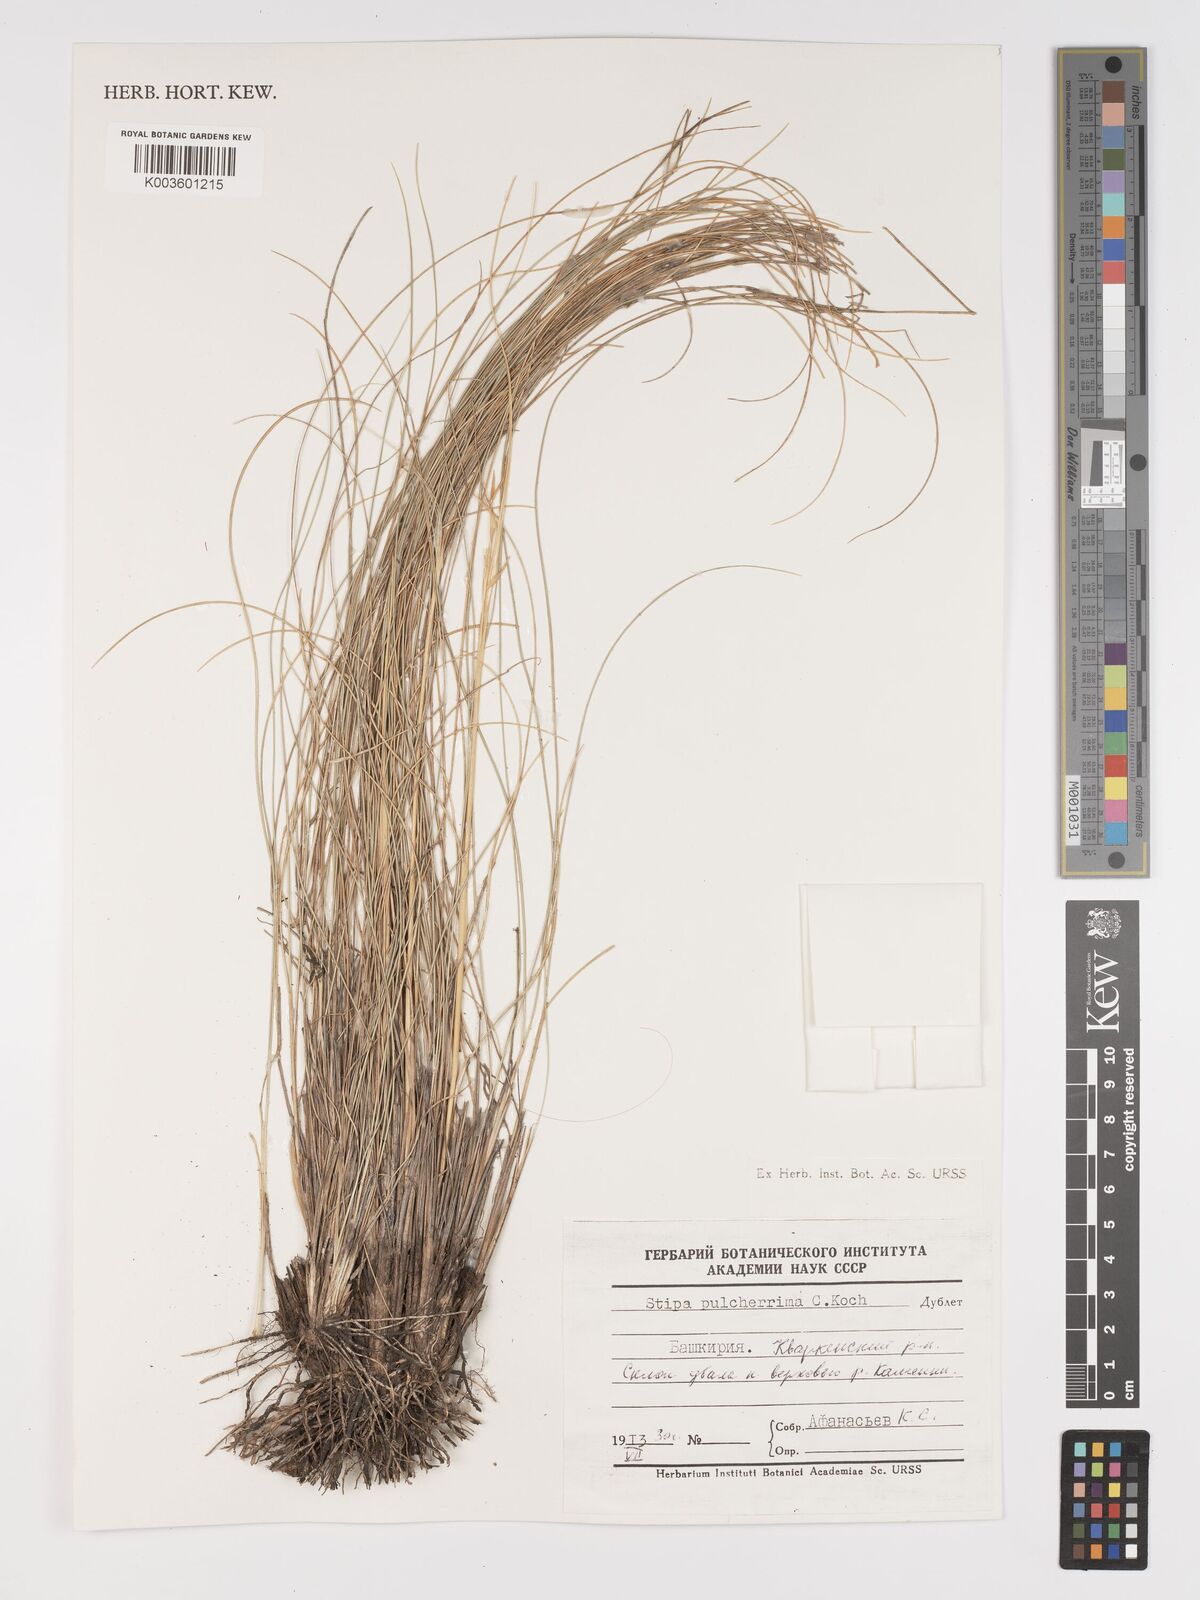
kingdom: Plantae
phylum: Tracheophyta
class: Liliopsida
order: Poales
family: Poaceae
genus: Stipa
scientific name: Stipa pulcherrima
